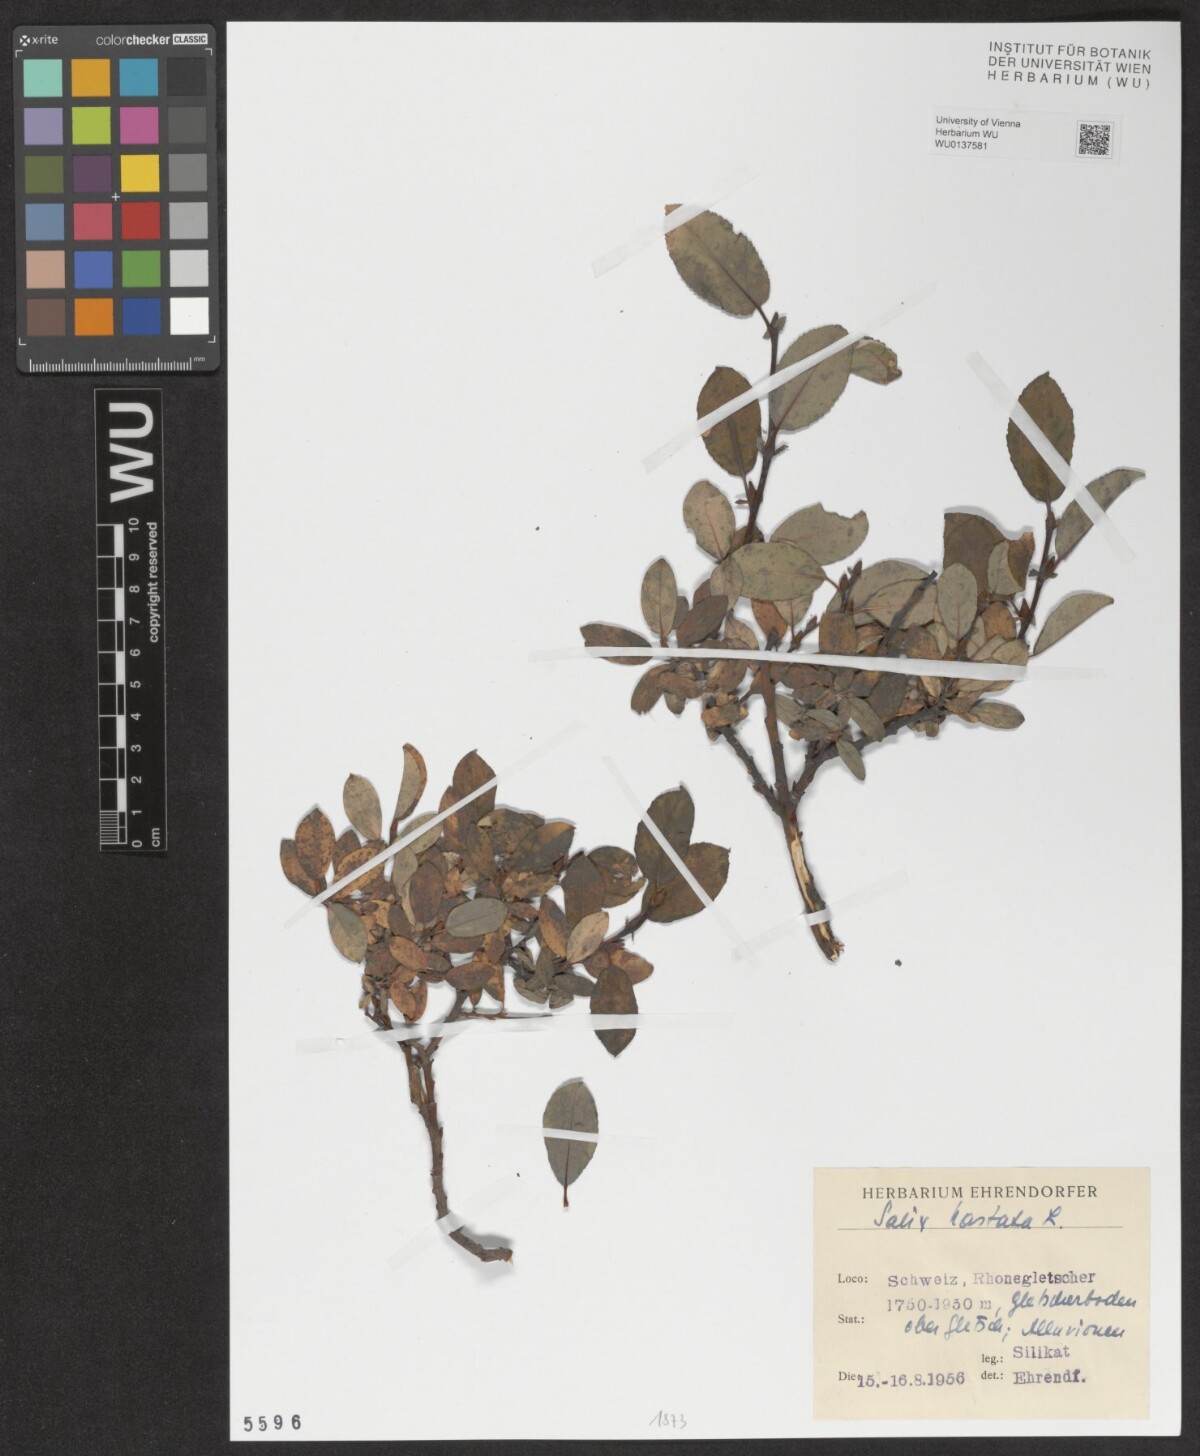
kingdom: Plantae
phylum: Tracheophyta
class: Magnoliopsida
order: Malpighiales
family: Salicaceae
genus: Salix
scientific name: Salix hastata
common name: Halberd willow
